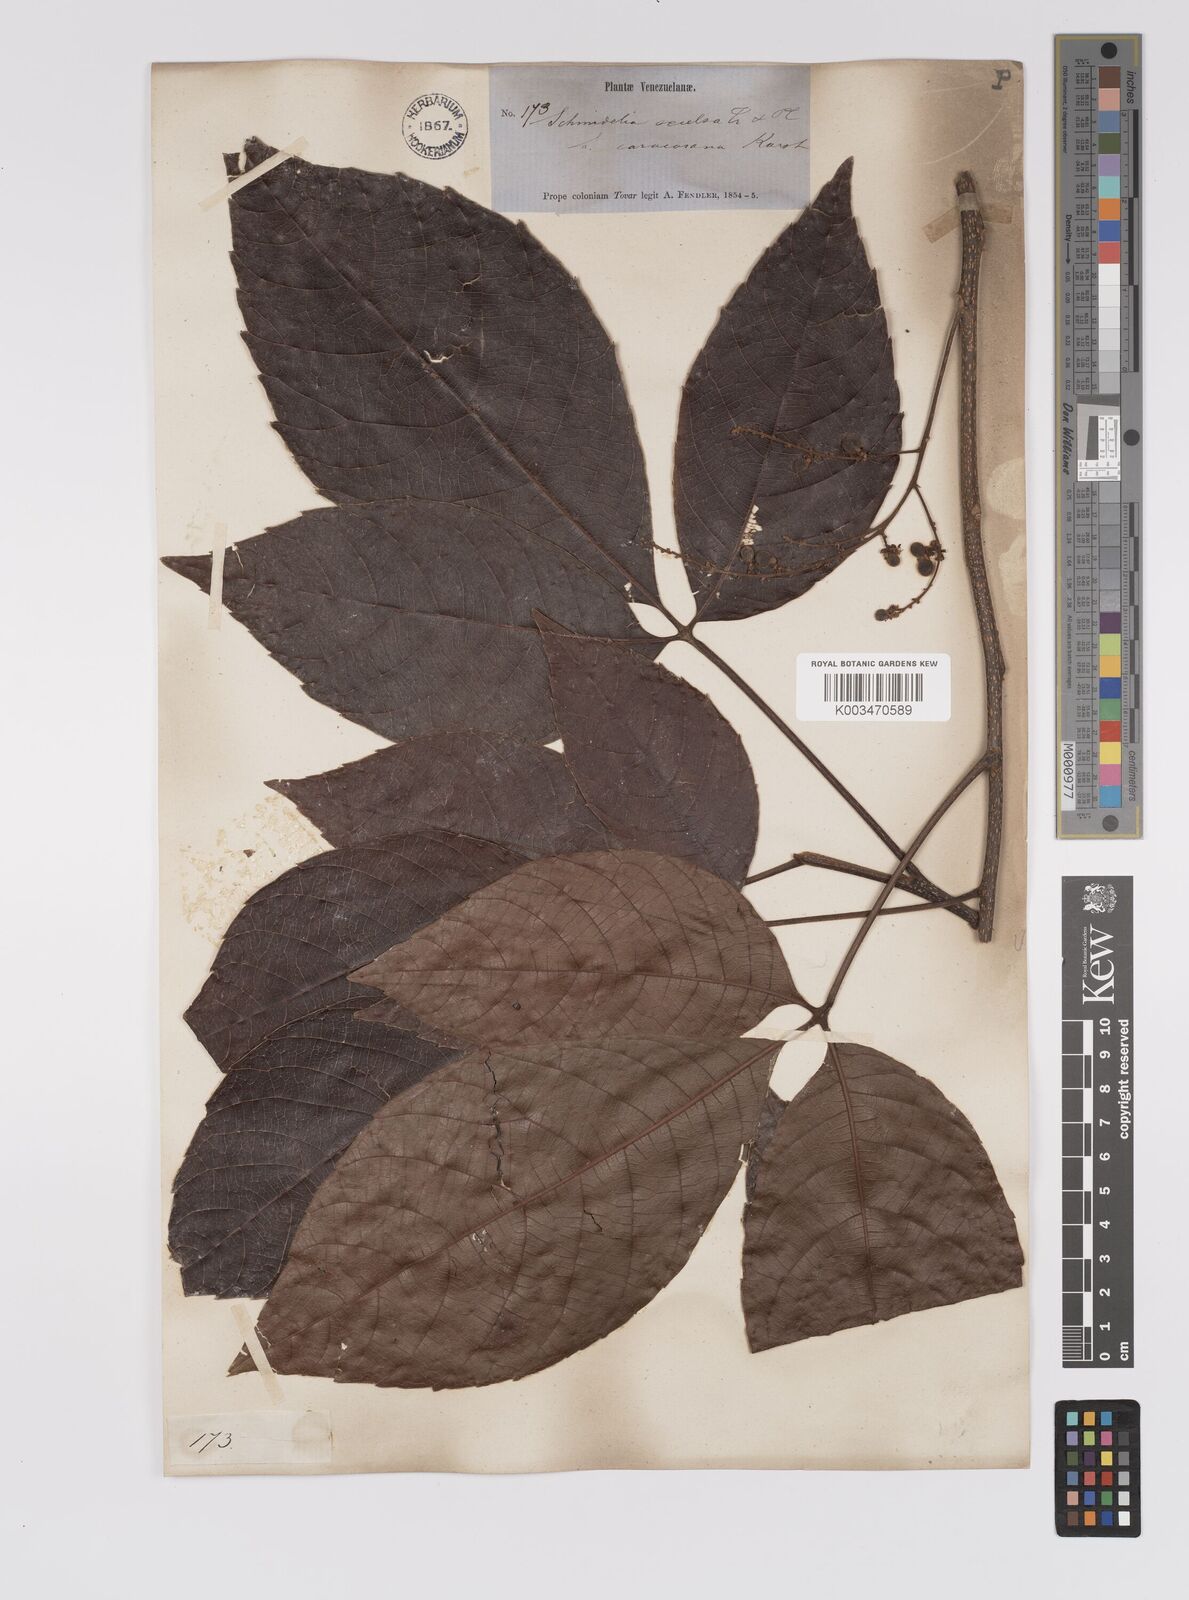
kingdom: Plantae
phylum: Tracheophyta
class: Magnoliopsida
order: Sapindales
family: Sapindaceae
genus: Allophylus
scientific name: Allophylus excelsus
